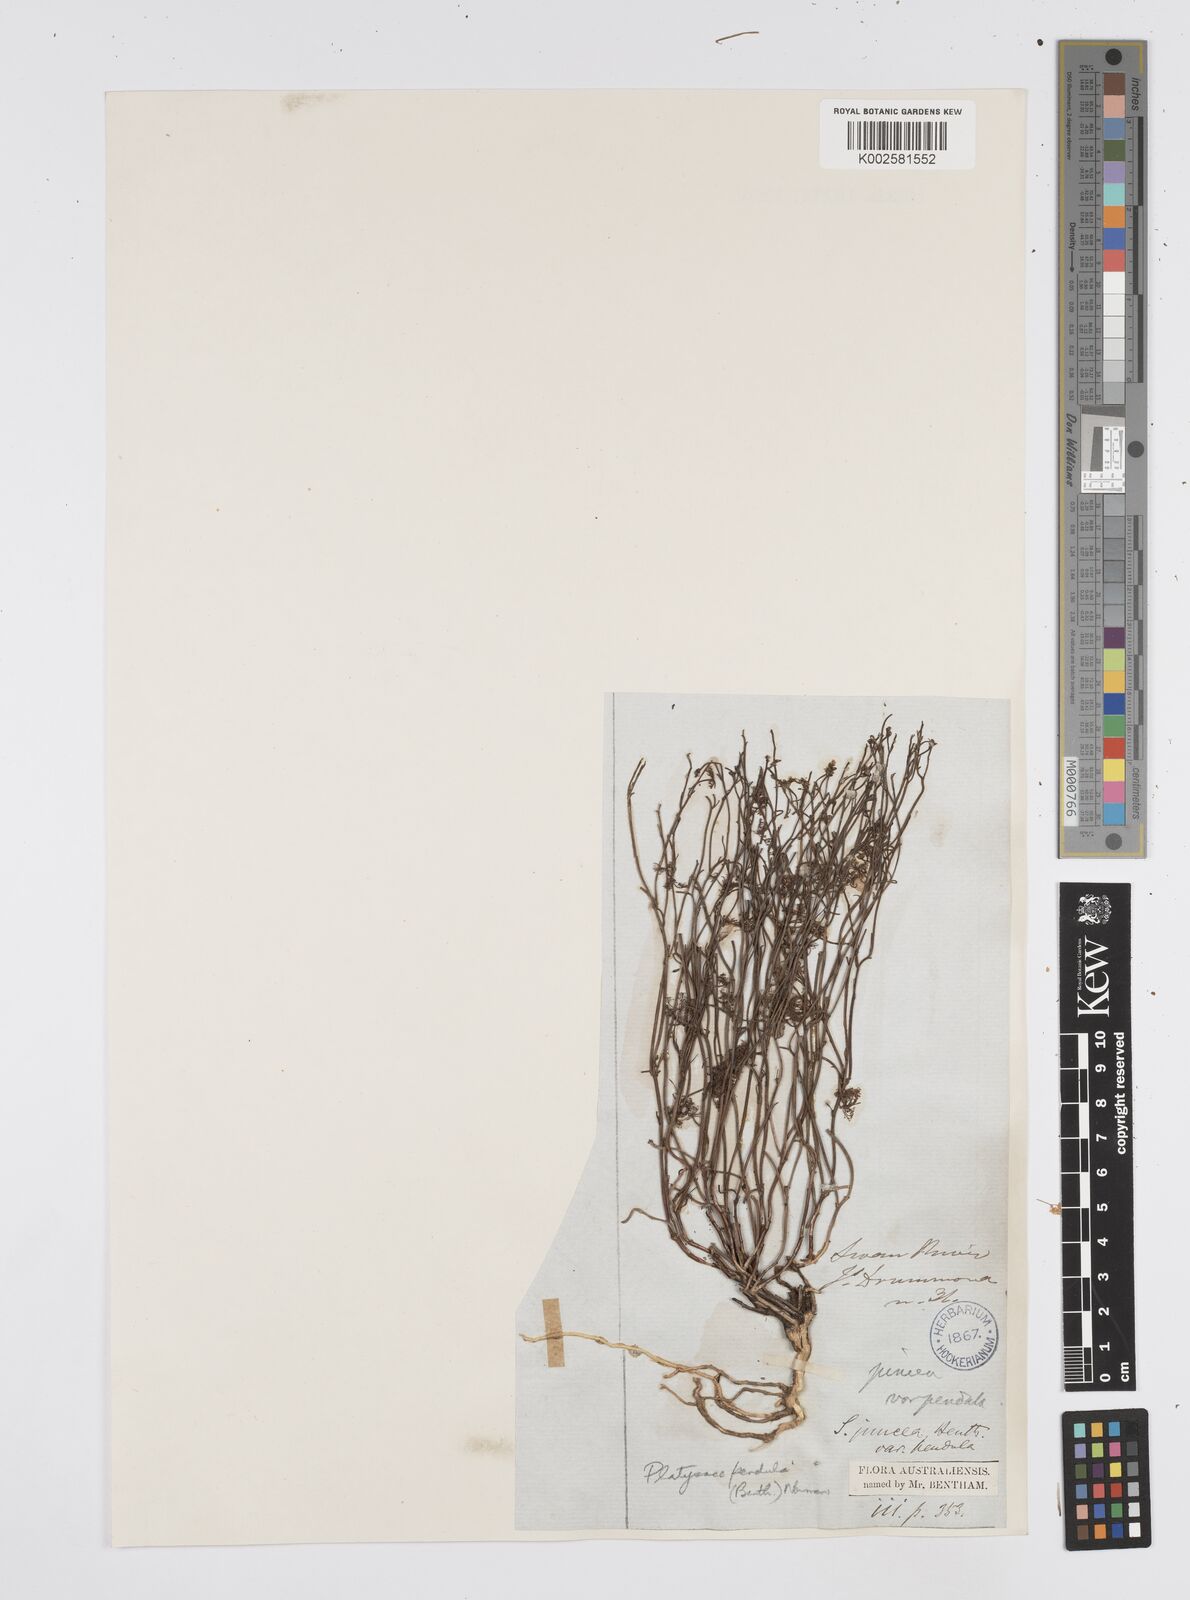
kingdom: Plantae
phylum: Tracheophyta
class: Magnoliopsida
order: Apiales
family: Apiaceae
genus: Centella
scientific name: Centella
